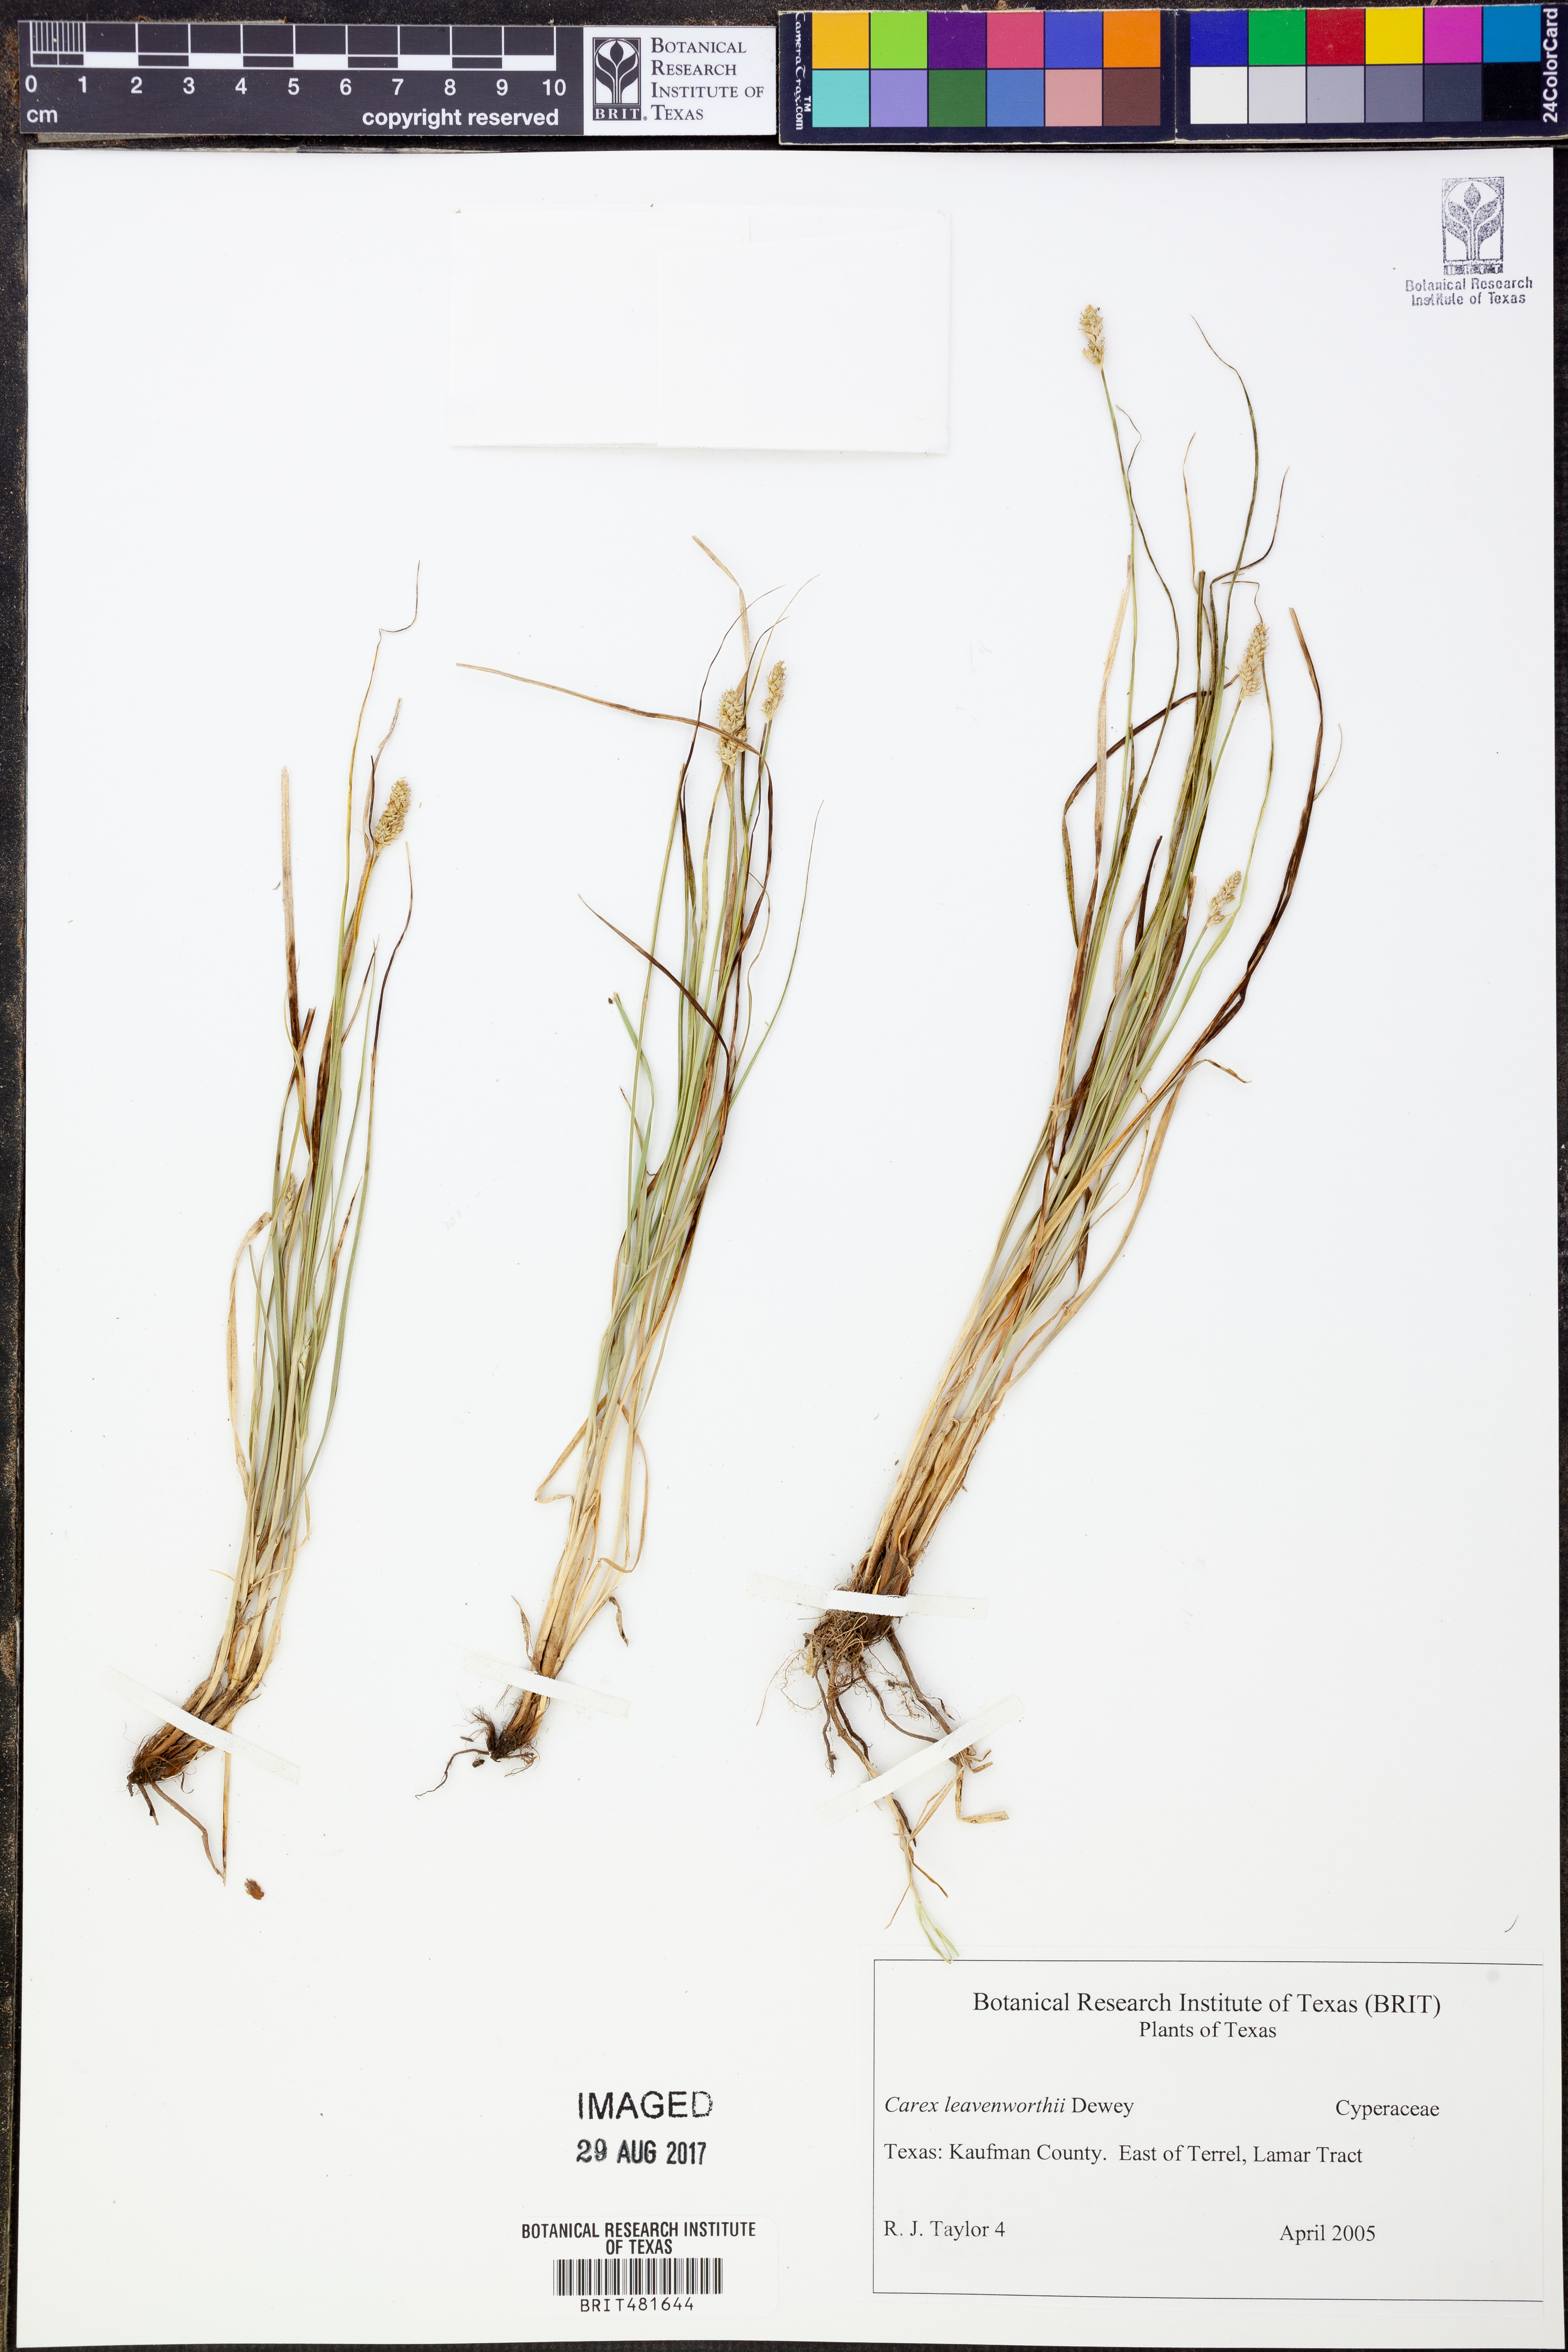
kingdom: Plantae
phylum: Tracheophyta
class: Liliopsida
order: Poales
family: Cyperaceae
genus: Carex
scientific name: Carex leavenworthii
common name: Leavenworth's bracted sedge
